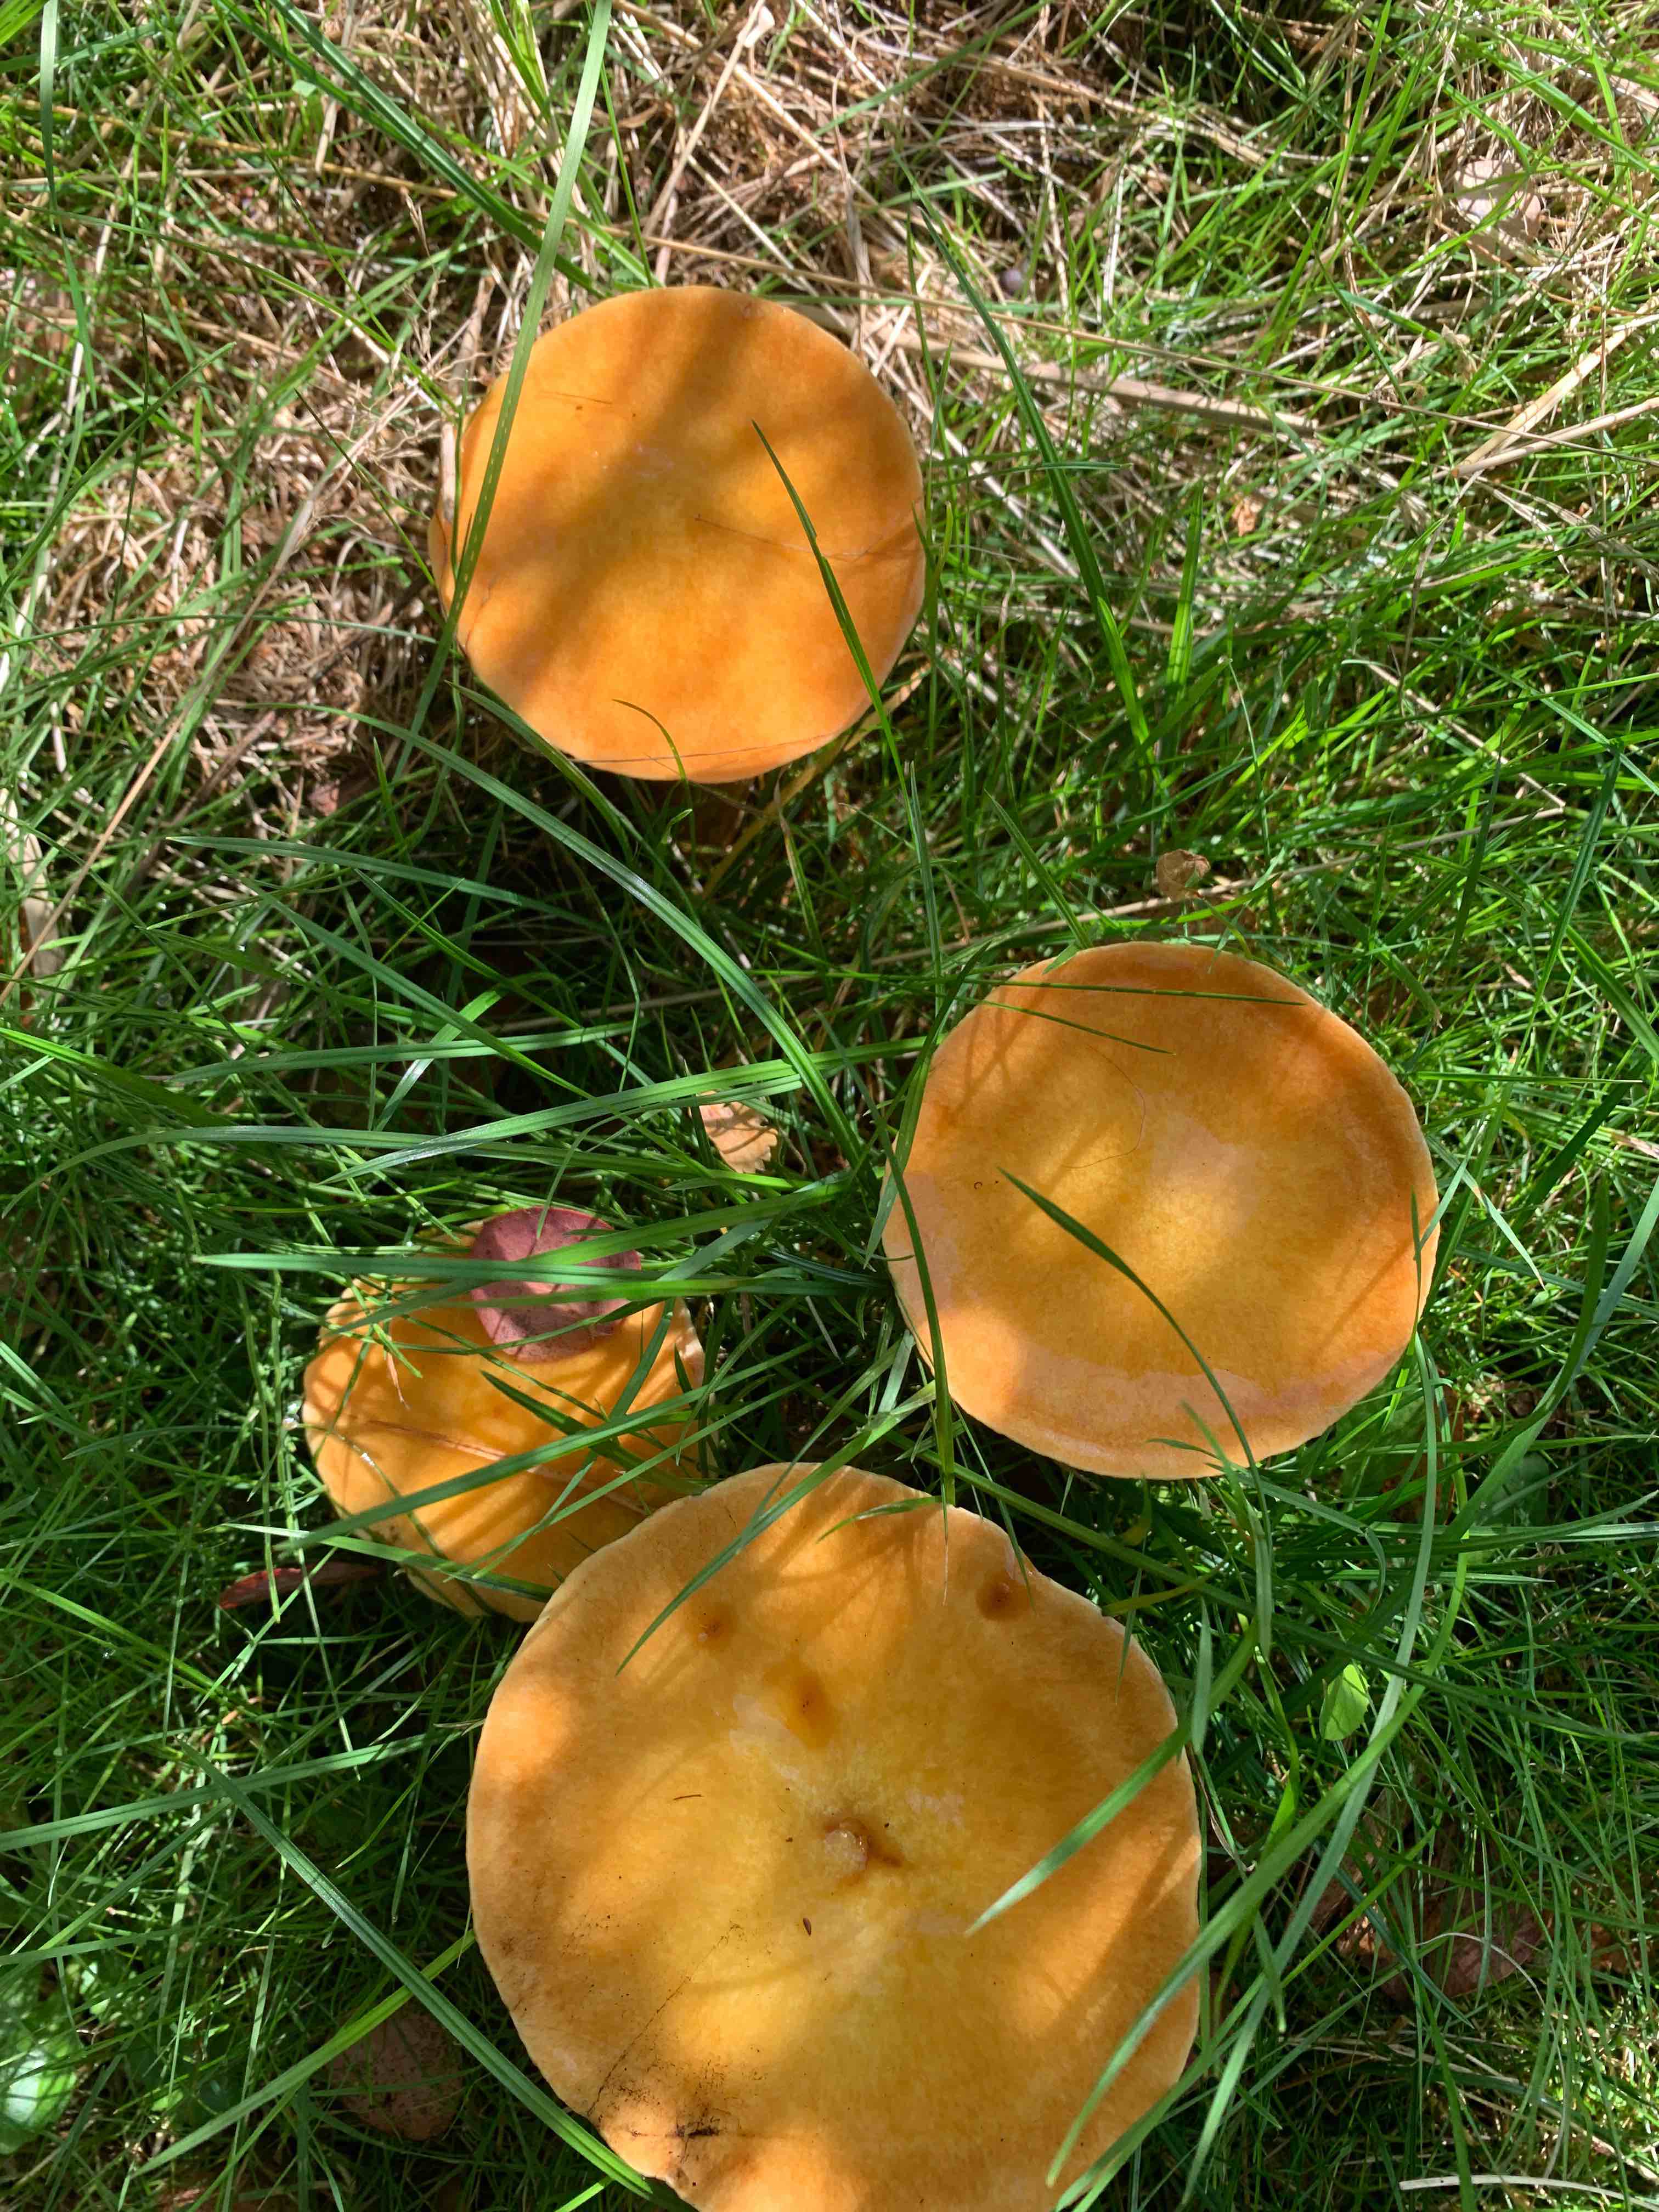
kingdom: Fungi
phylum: Basidiomycota
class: Agaricomycetes
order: Boletales
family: Suillaceae
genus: Suillus
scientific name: Suillus grevillei
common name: lærke-slimrørhat
